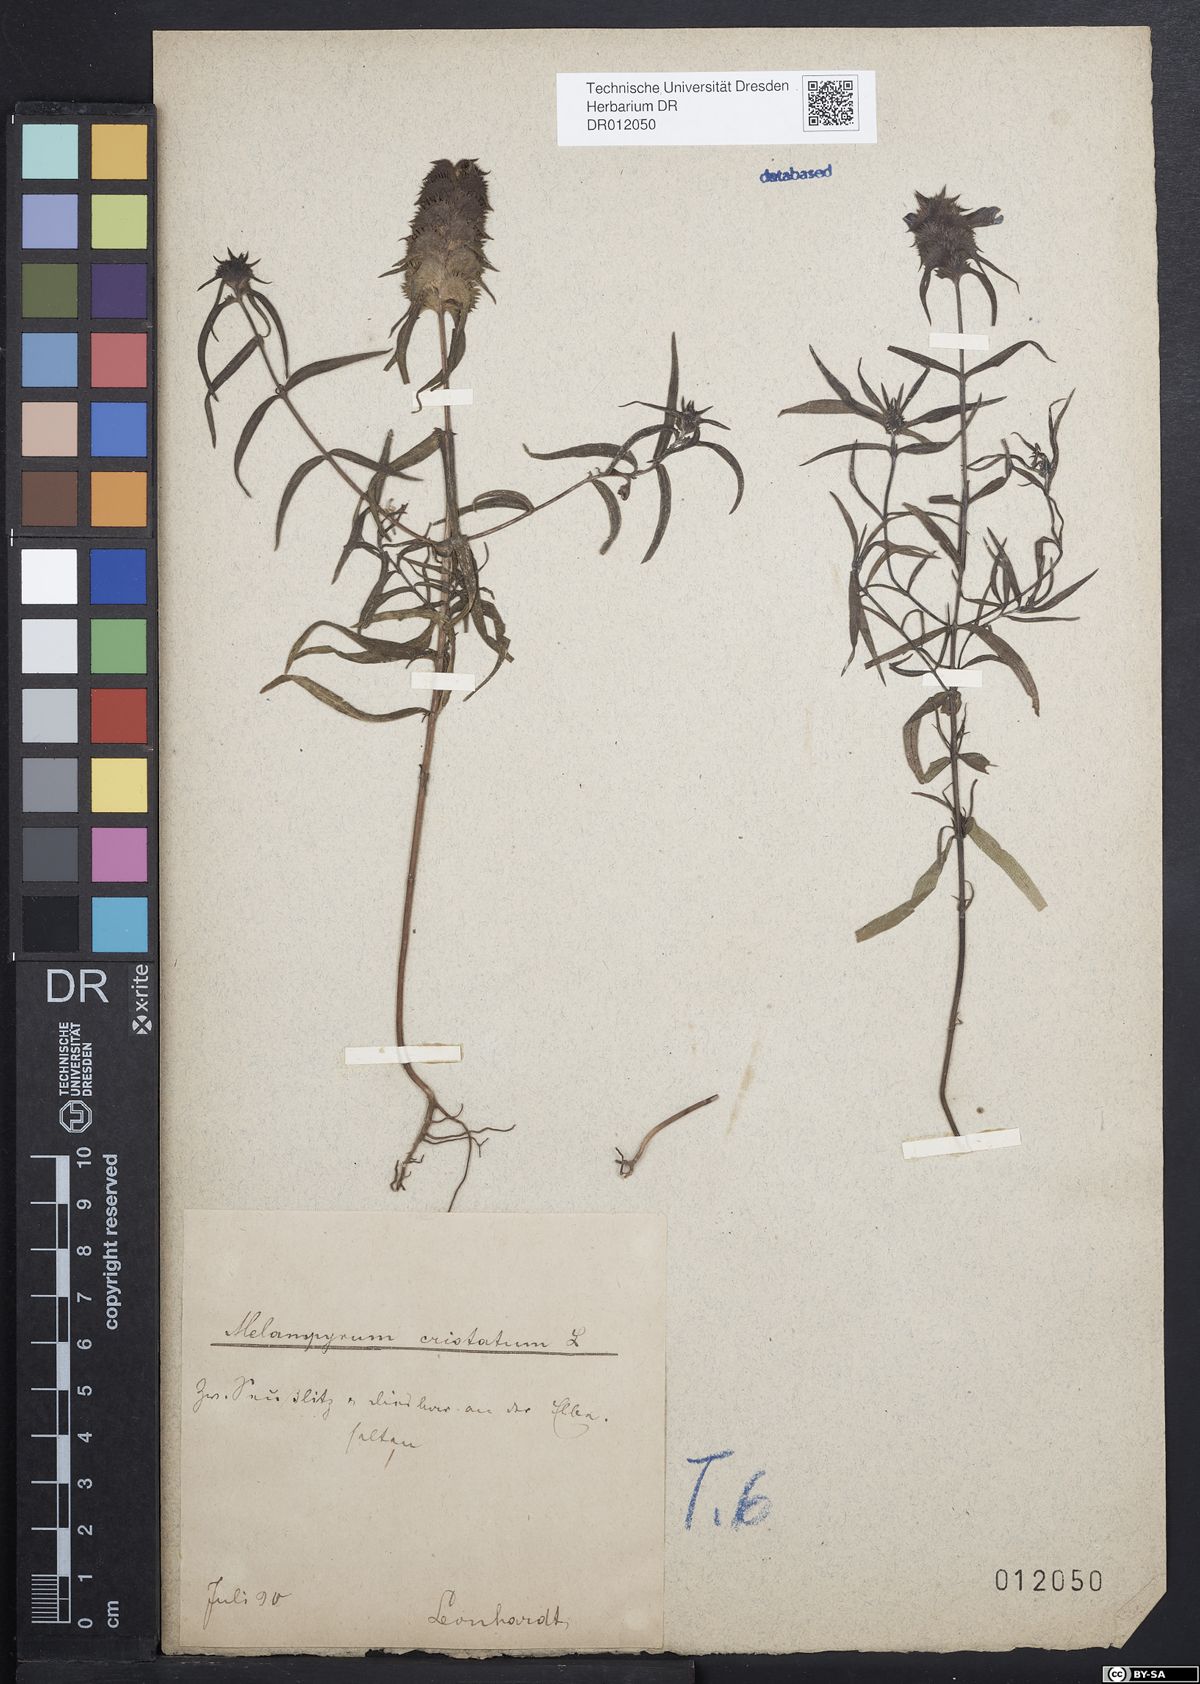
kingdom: Plantae
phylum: Tracheophyta
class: Magnoliopsida
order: Lamiales
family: Orobanchaceae
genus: Melampyrum
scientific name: Melampyrum cristatum
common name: Crested cow-wheat
